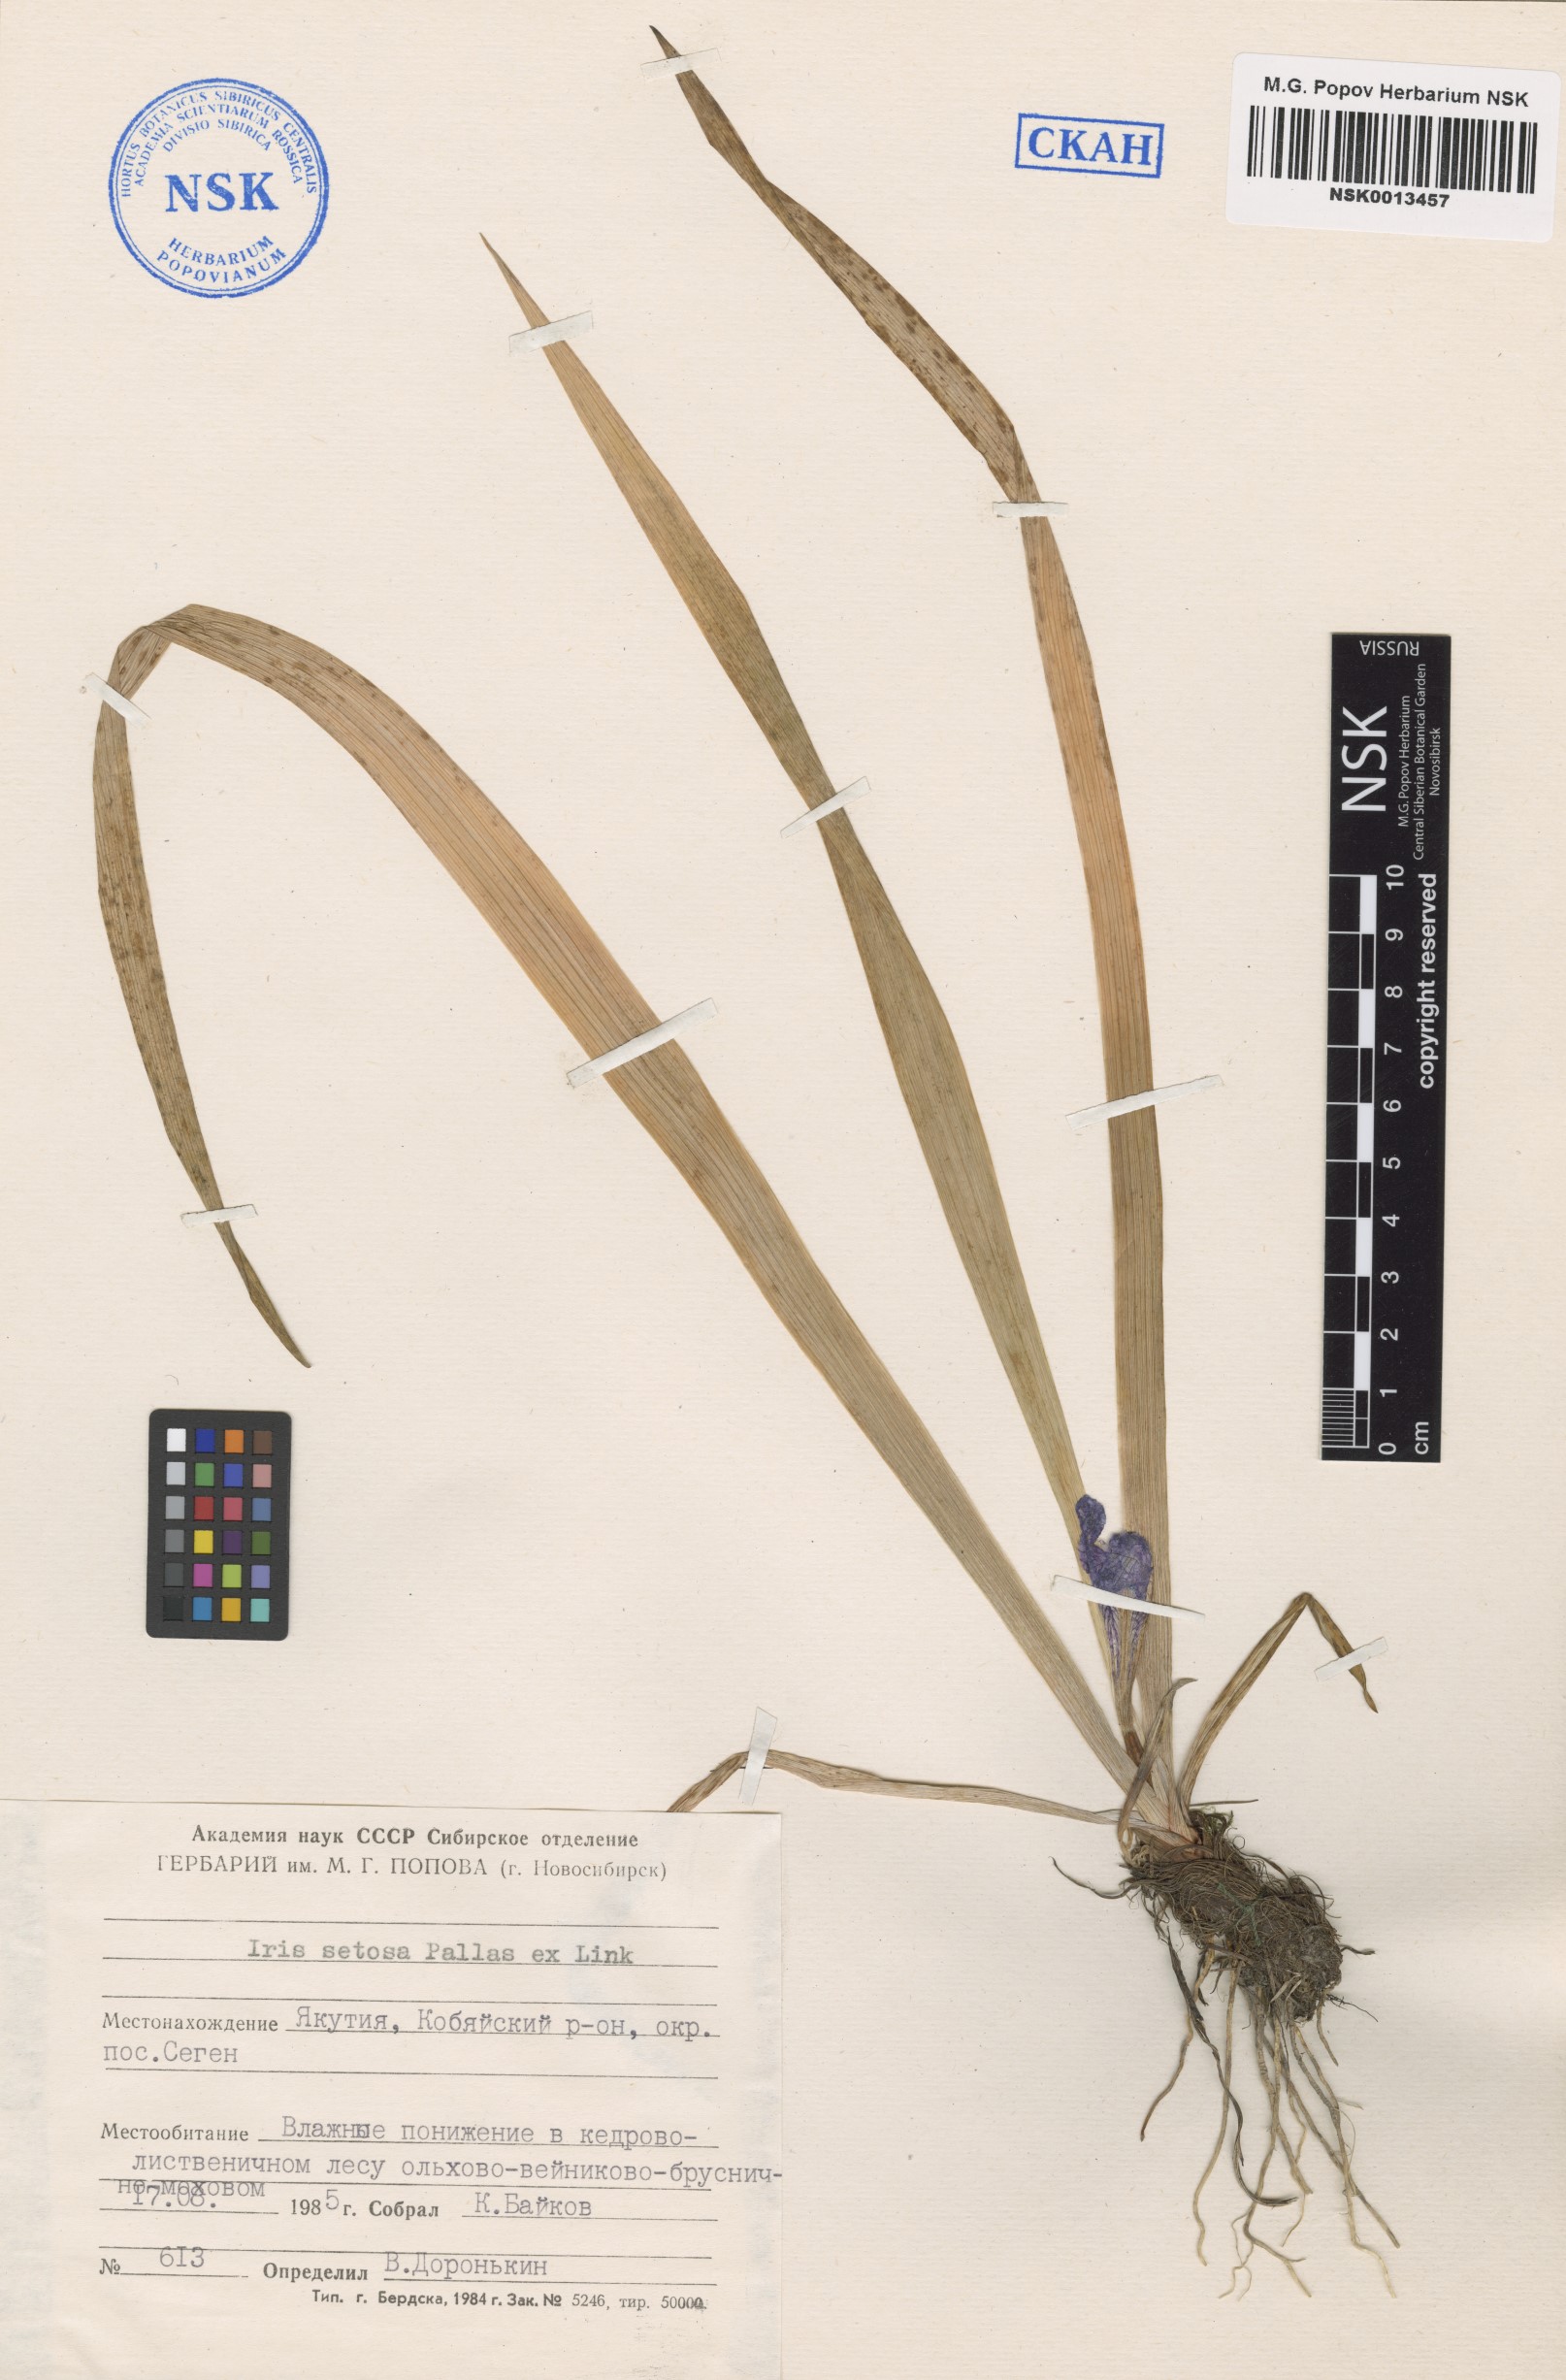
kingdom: Plantae
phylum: Tracheophyta
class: Liliopsida
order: Asparagales
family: Iridaceae
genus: Iris
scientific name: Iris setosa
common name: Arctic blue flag
